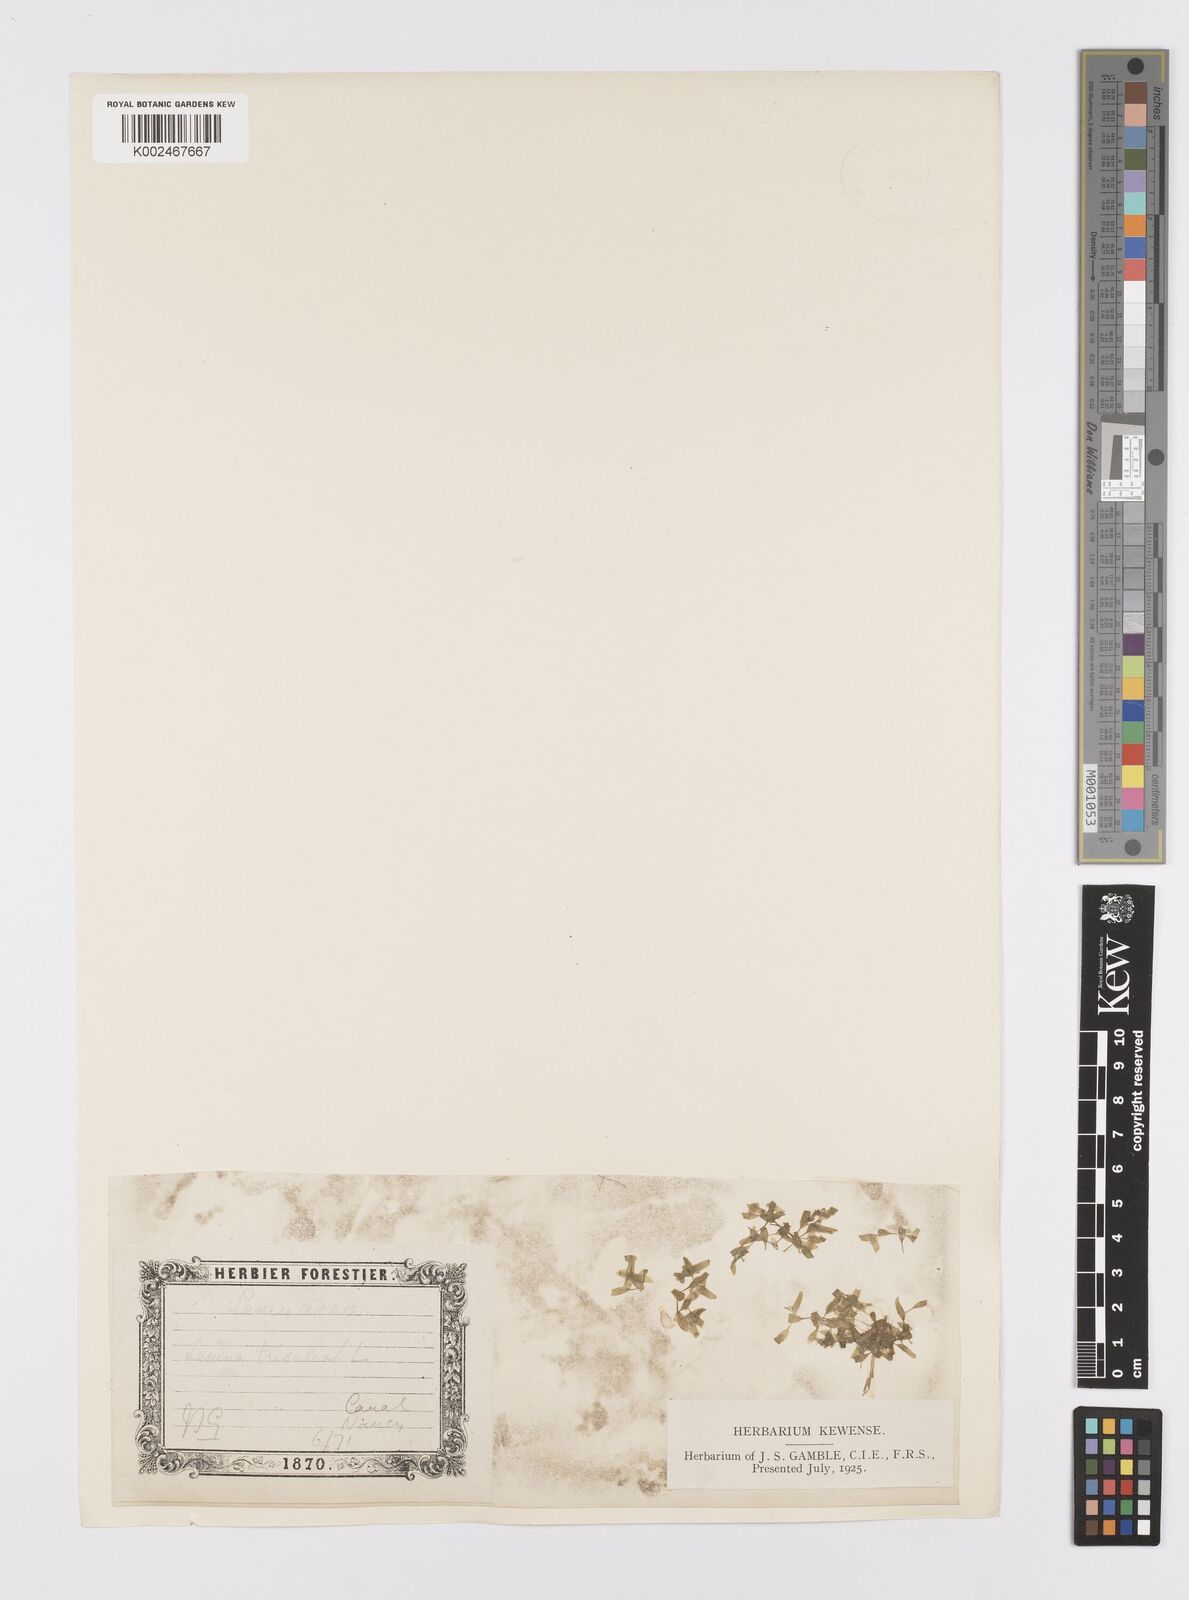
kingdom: Plantae
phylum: Tracheophyta
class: Liliopsida
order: Alismatales
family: Araceae
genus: Lemna
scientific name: Lemna trisulca
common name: Ivy-leaved duckweed
